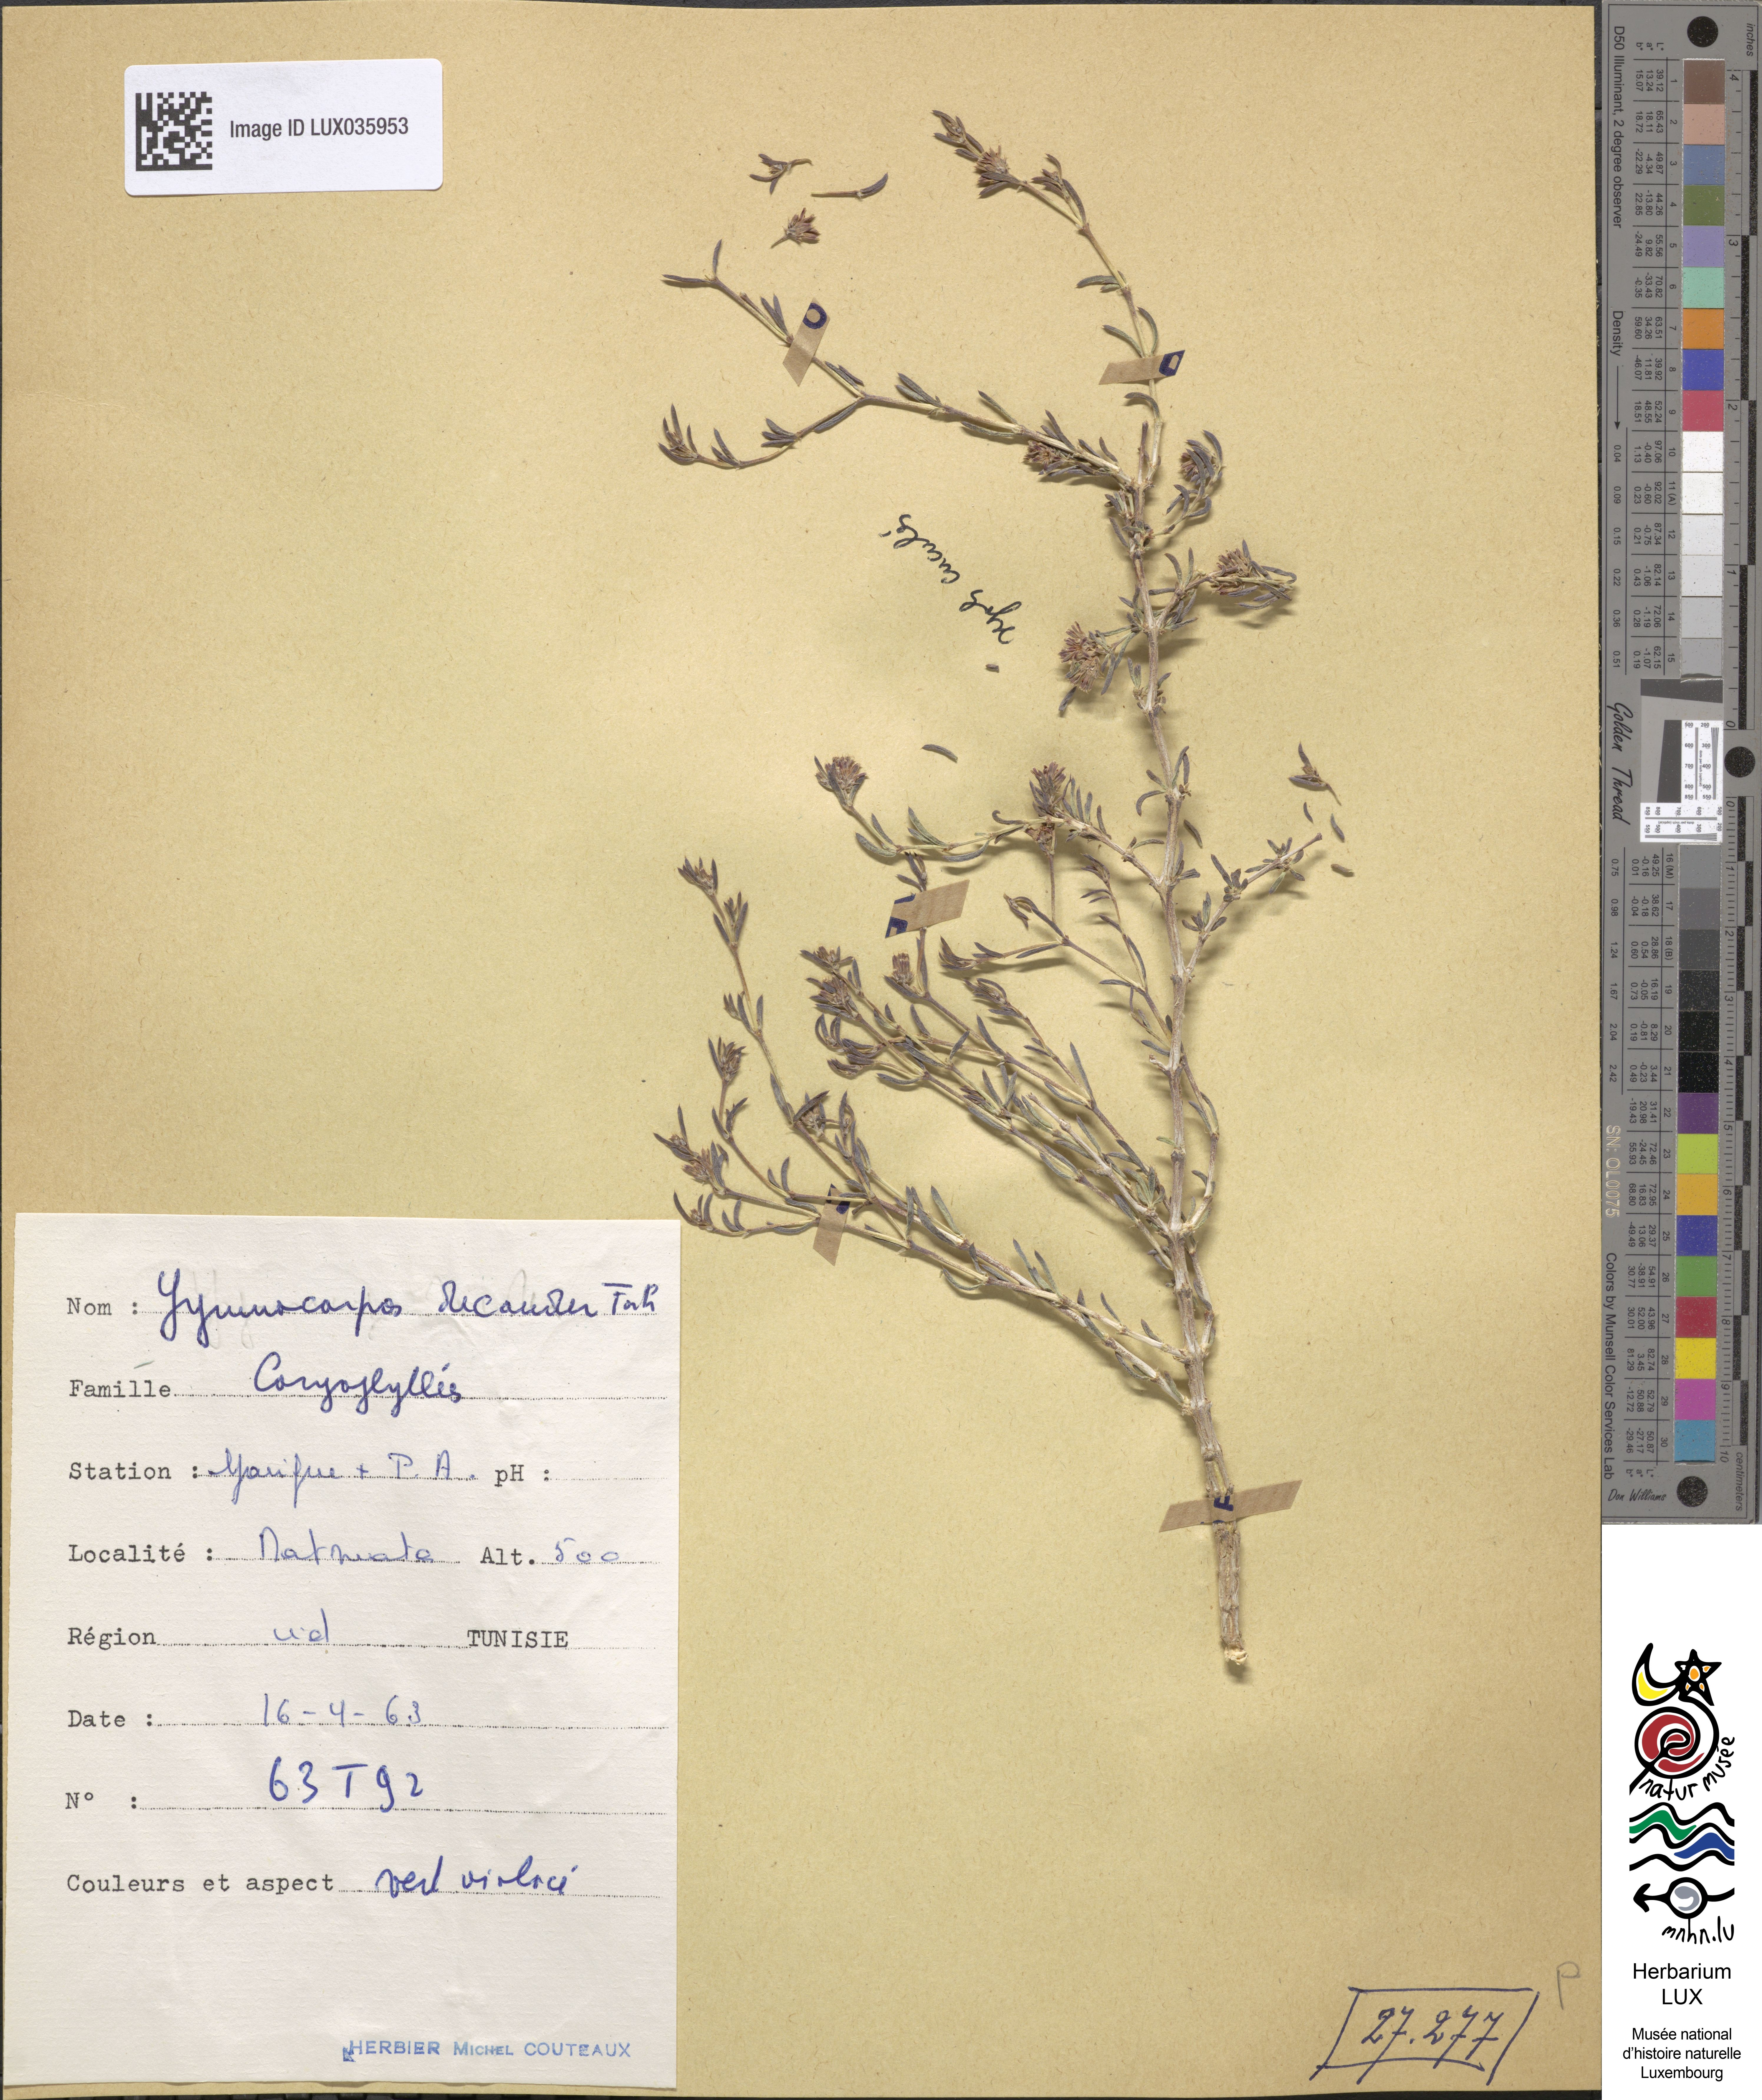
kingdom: Plantae
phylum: Tracheophyta
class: Magnoliopsida
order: Caryophyllales
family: Caryophyllaceae
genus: Gymnocarpos
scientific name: Gymnocarpos decander
